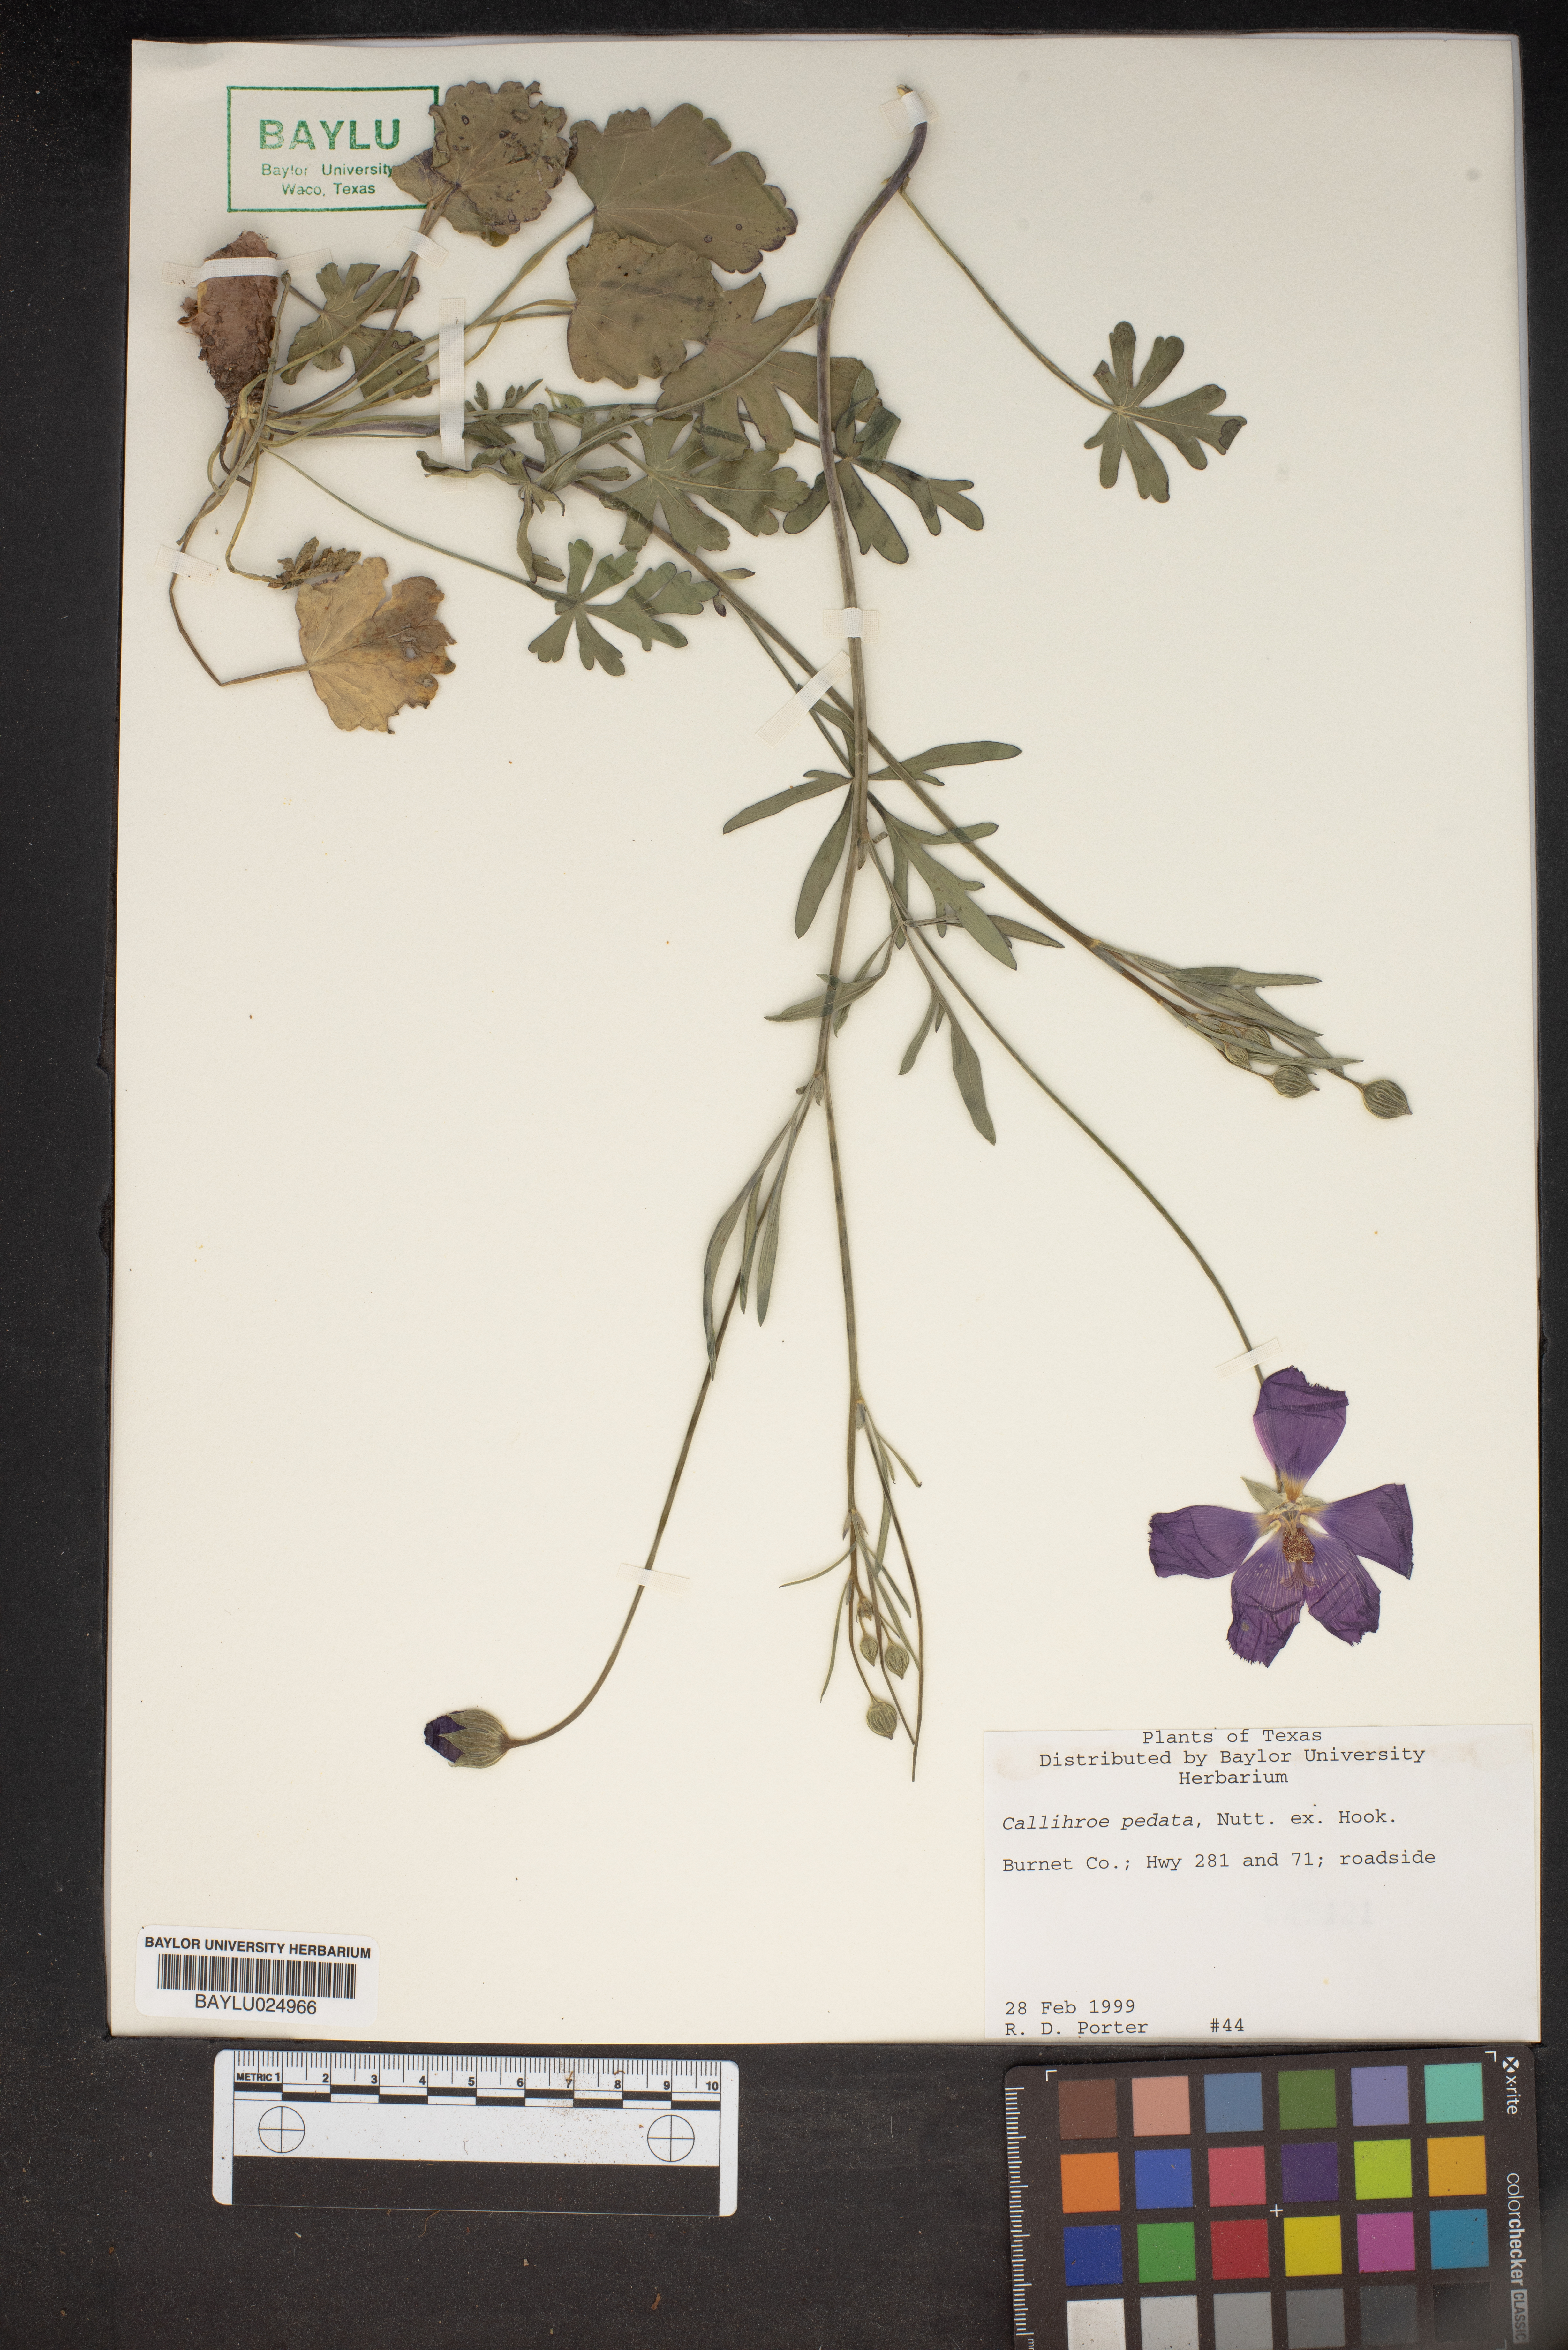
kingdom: Plantae
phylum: Tracheophyta
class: Magnoliopsida
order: Malvales
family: Malvaceae
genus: Callirhoe
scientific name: Callirhoe pedata
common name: Finger poppy-mallow
